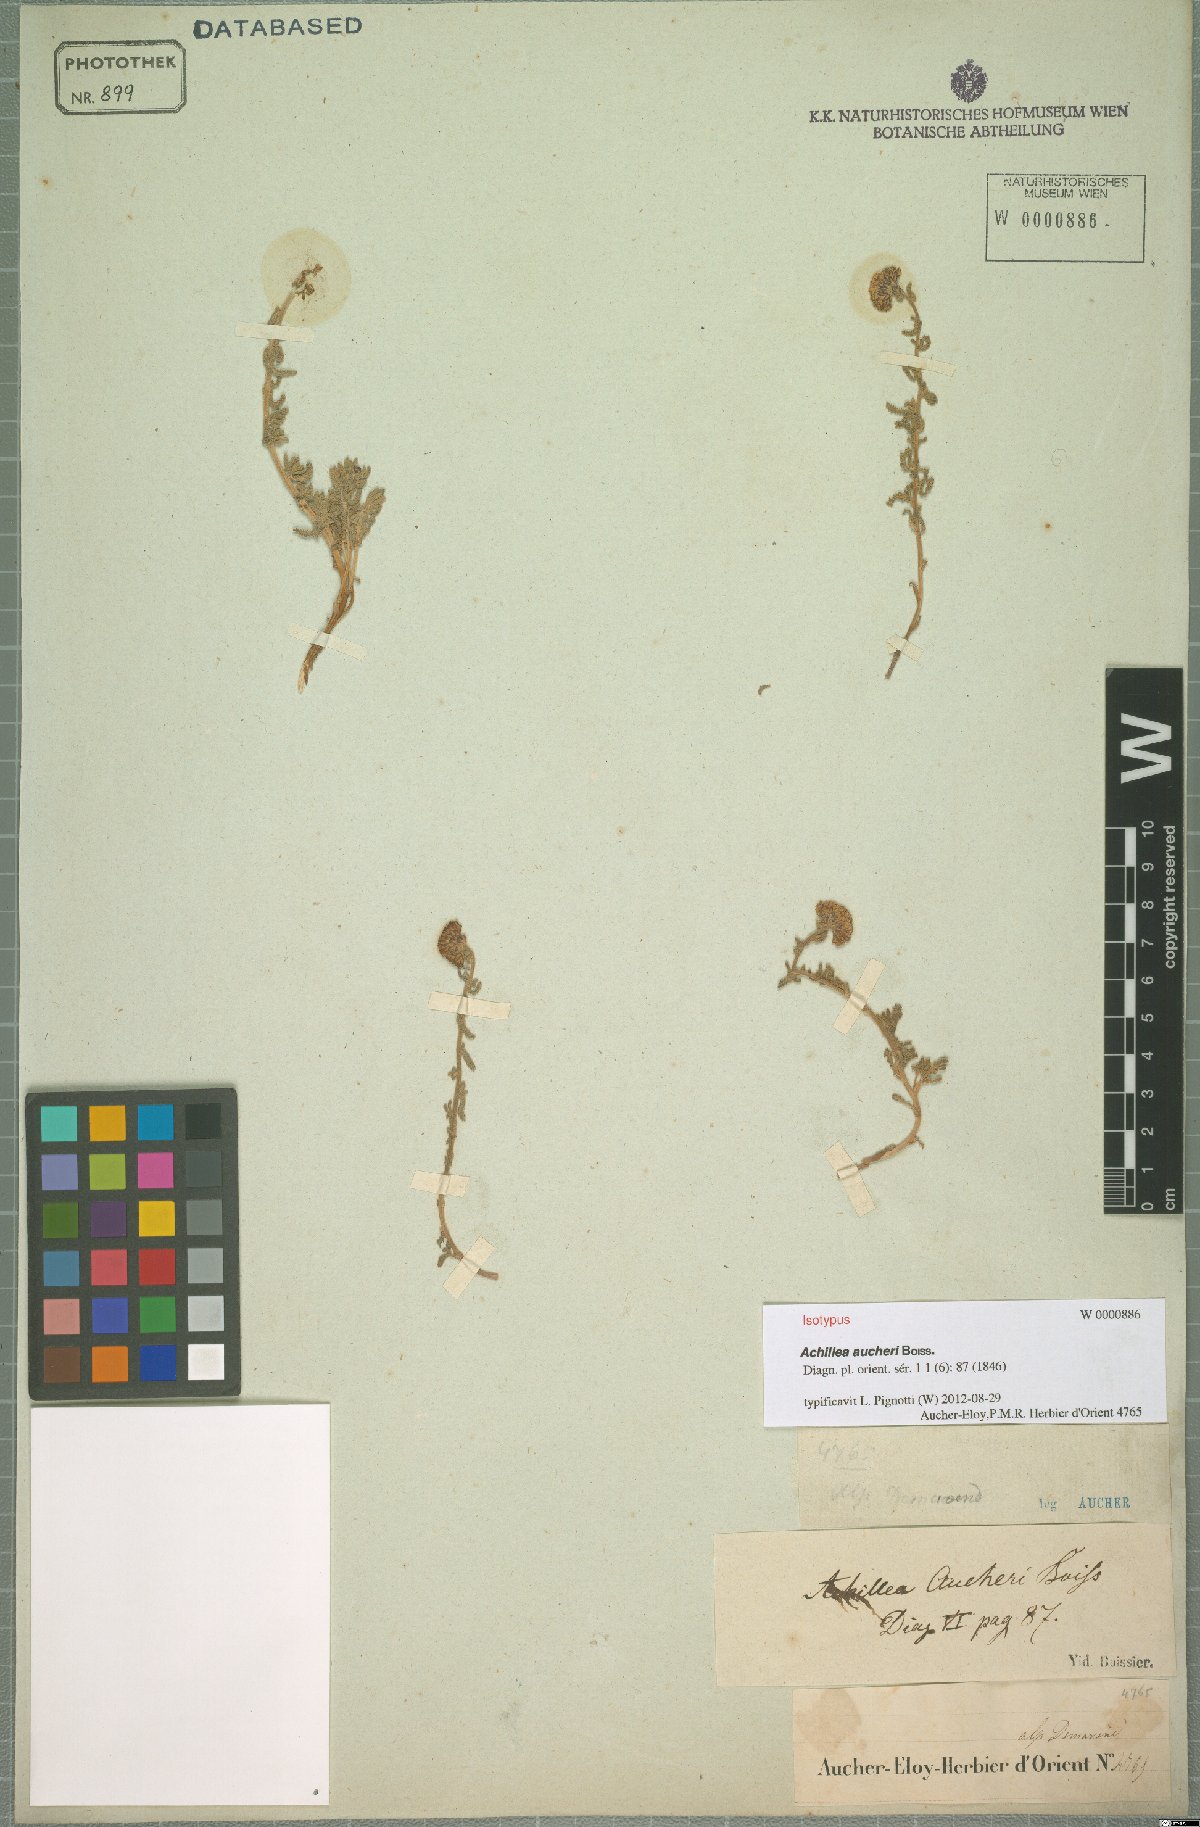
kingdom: Plantae
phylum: Tracheophyta
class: Magnoliopsida
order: Asterales
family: Asteraceae
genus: Achillea
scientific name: Achillea aucheri
